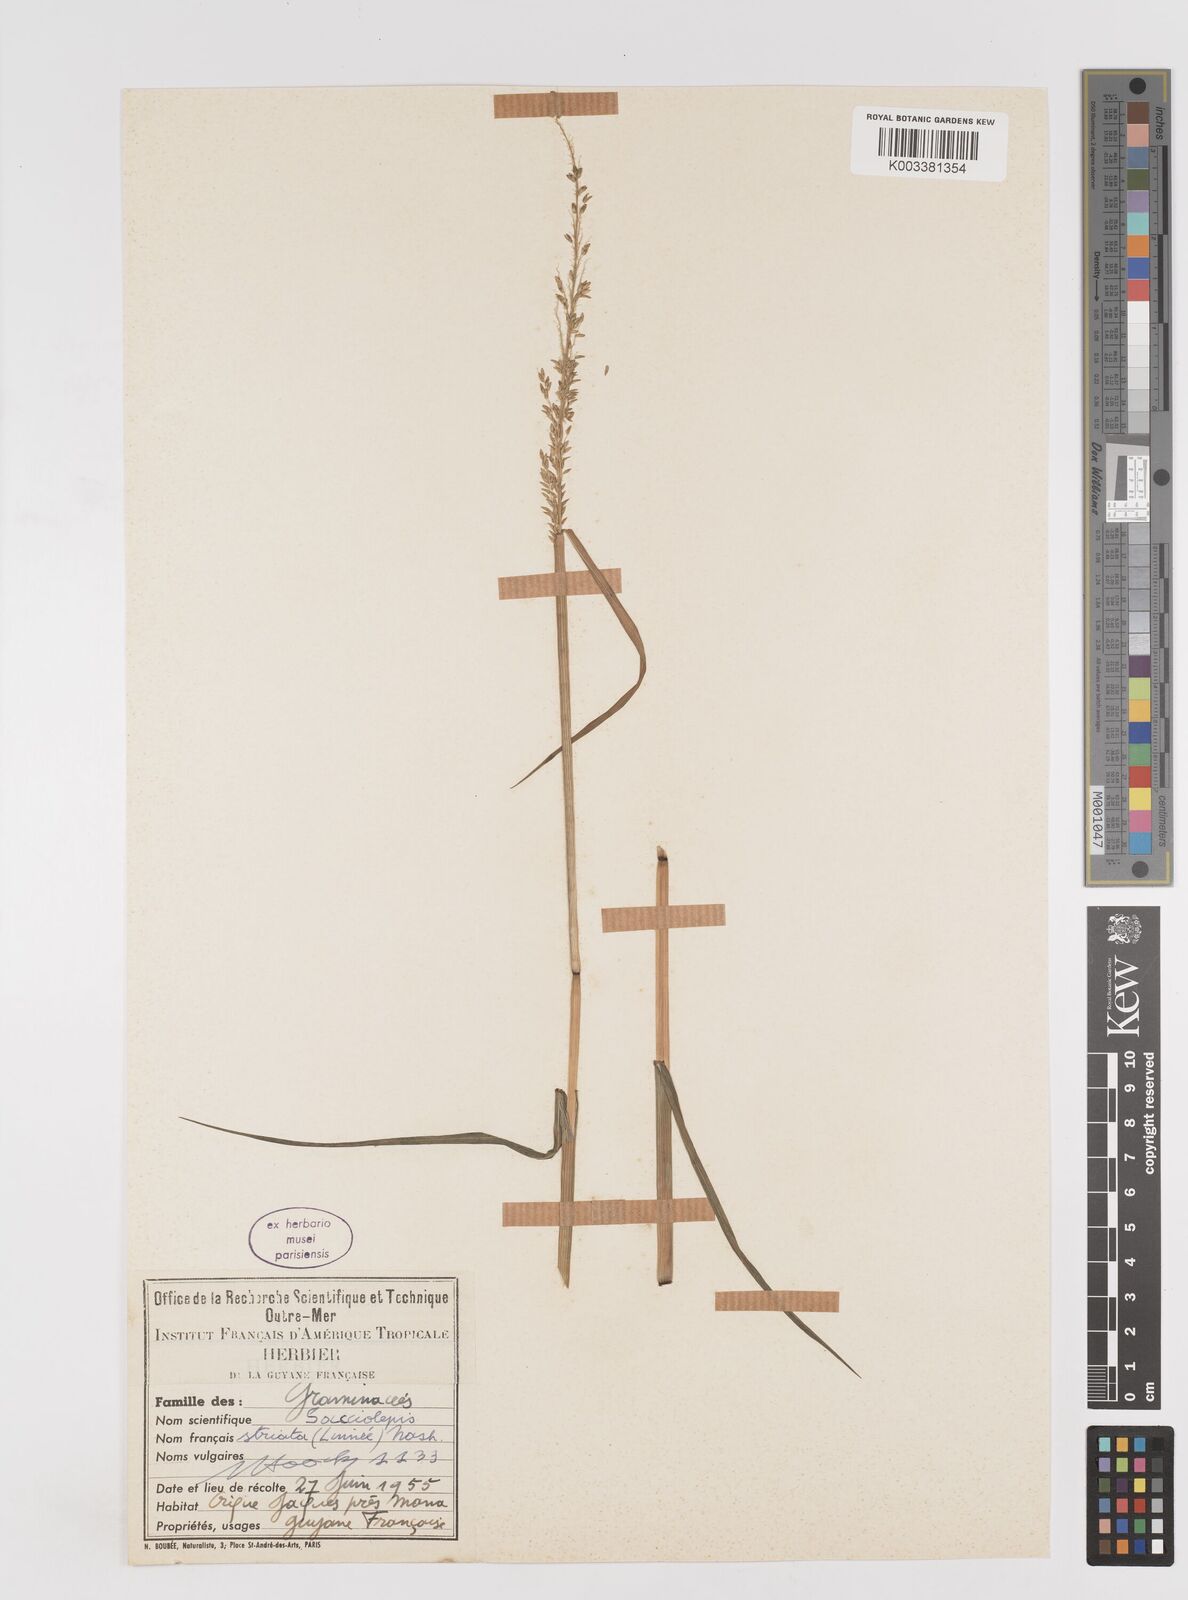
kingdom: Plantae
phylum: Tracheophyta
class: Liliopsida
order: Poales
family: Poaceae
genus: Sacciolepis
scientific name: Sacciolepis striata
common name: American cupscale
